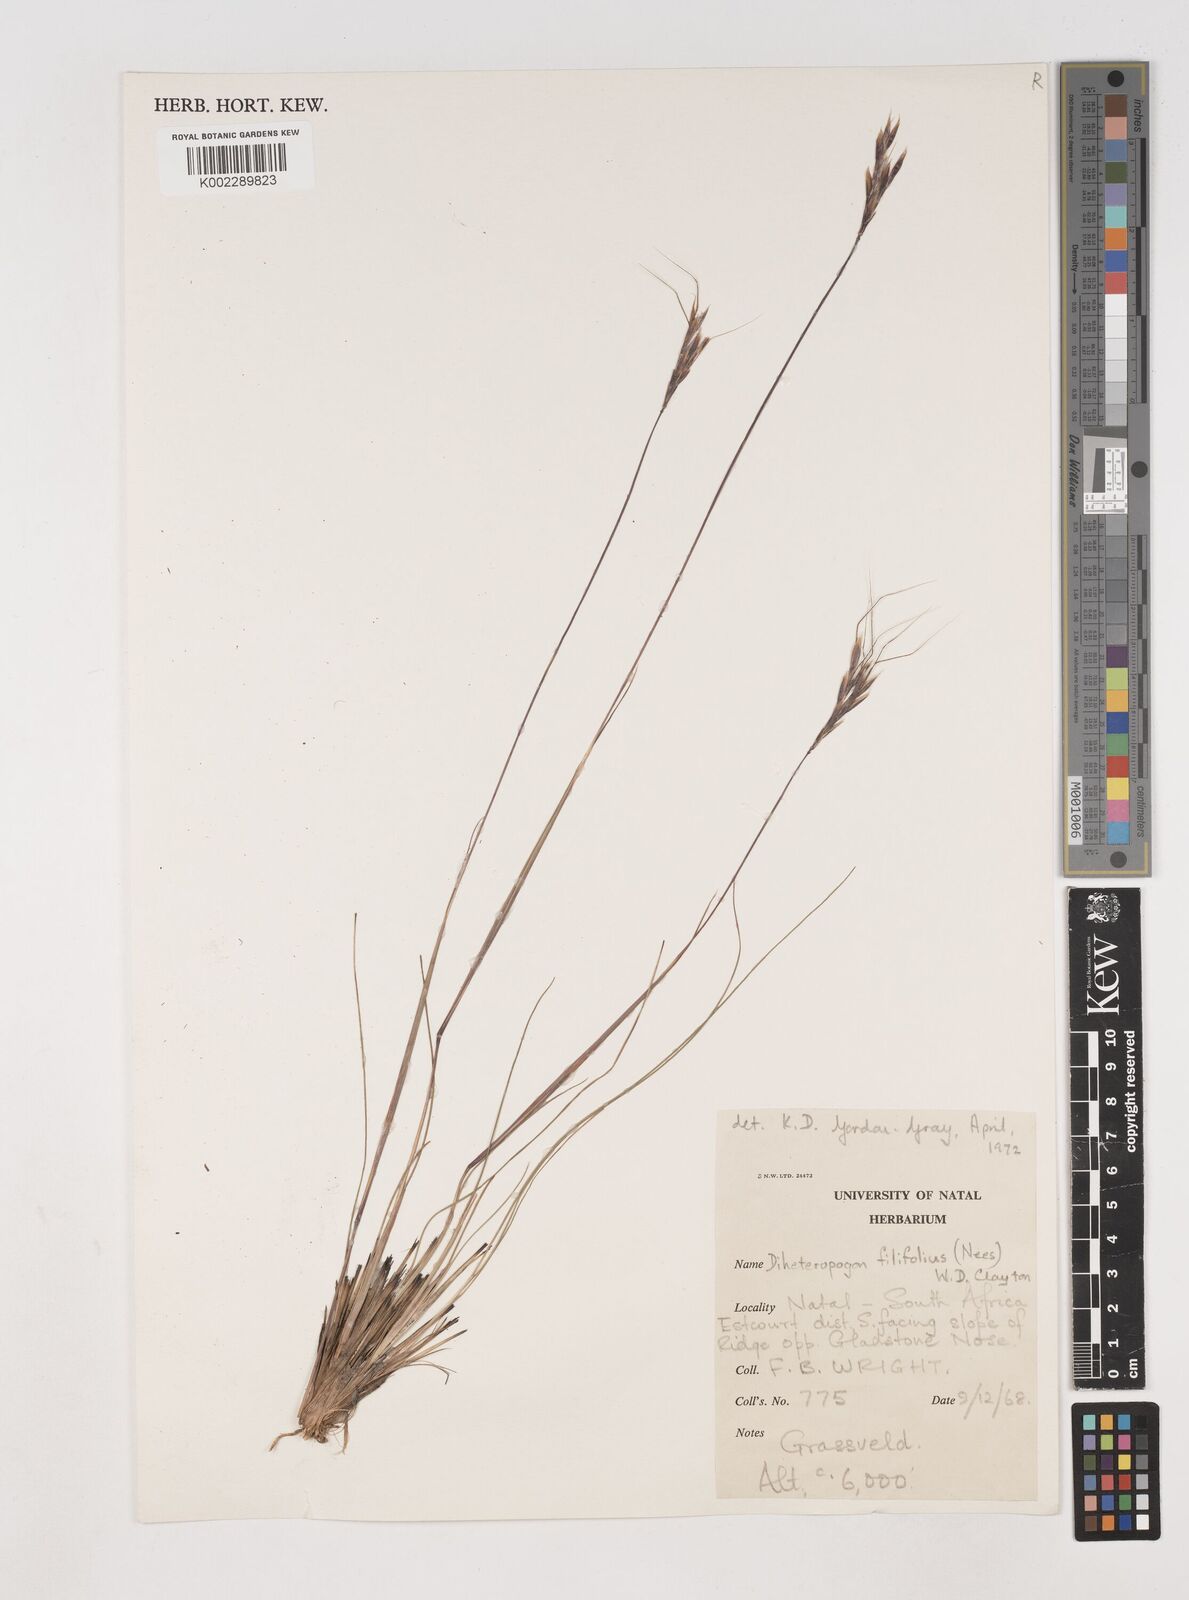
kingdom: Plantae
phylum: Tracheophyta
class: Liliopsida
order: Poales
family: Poaceae
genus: Diheteropogon
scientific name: Diheteropogon filifolius
